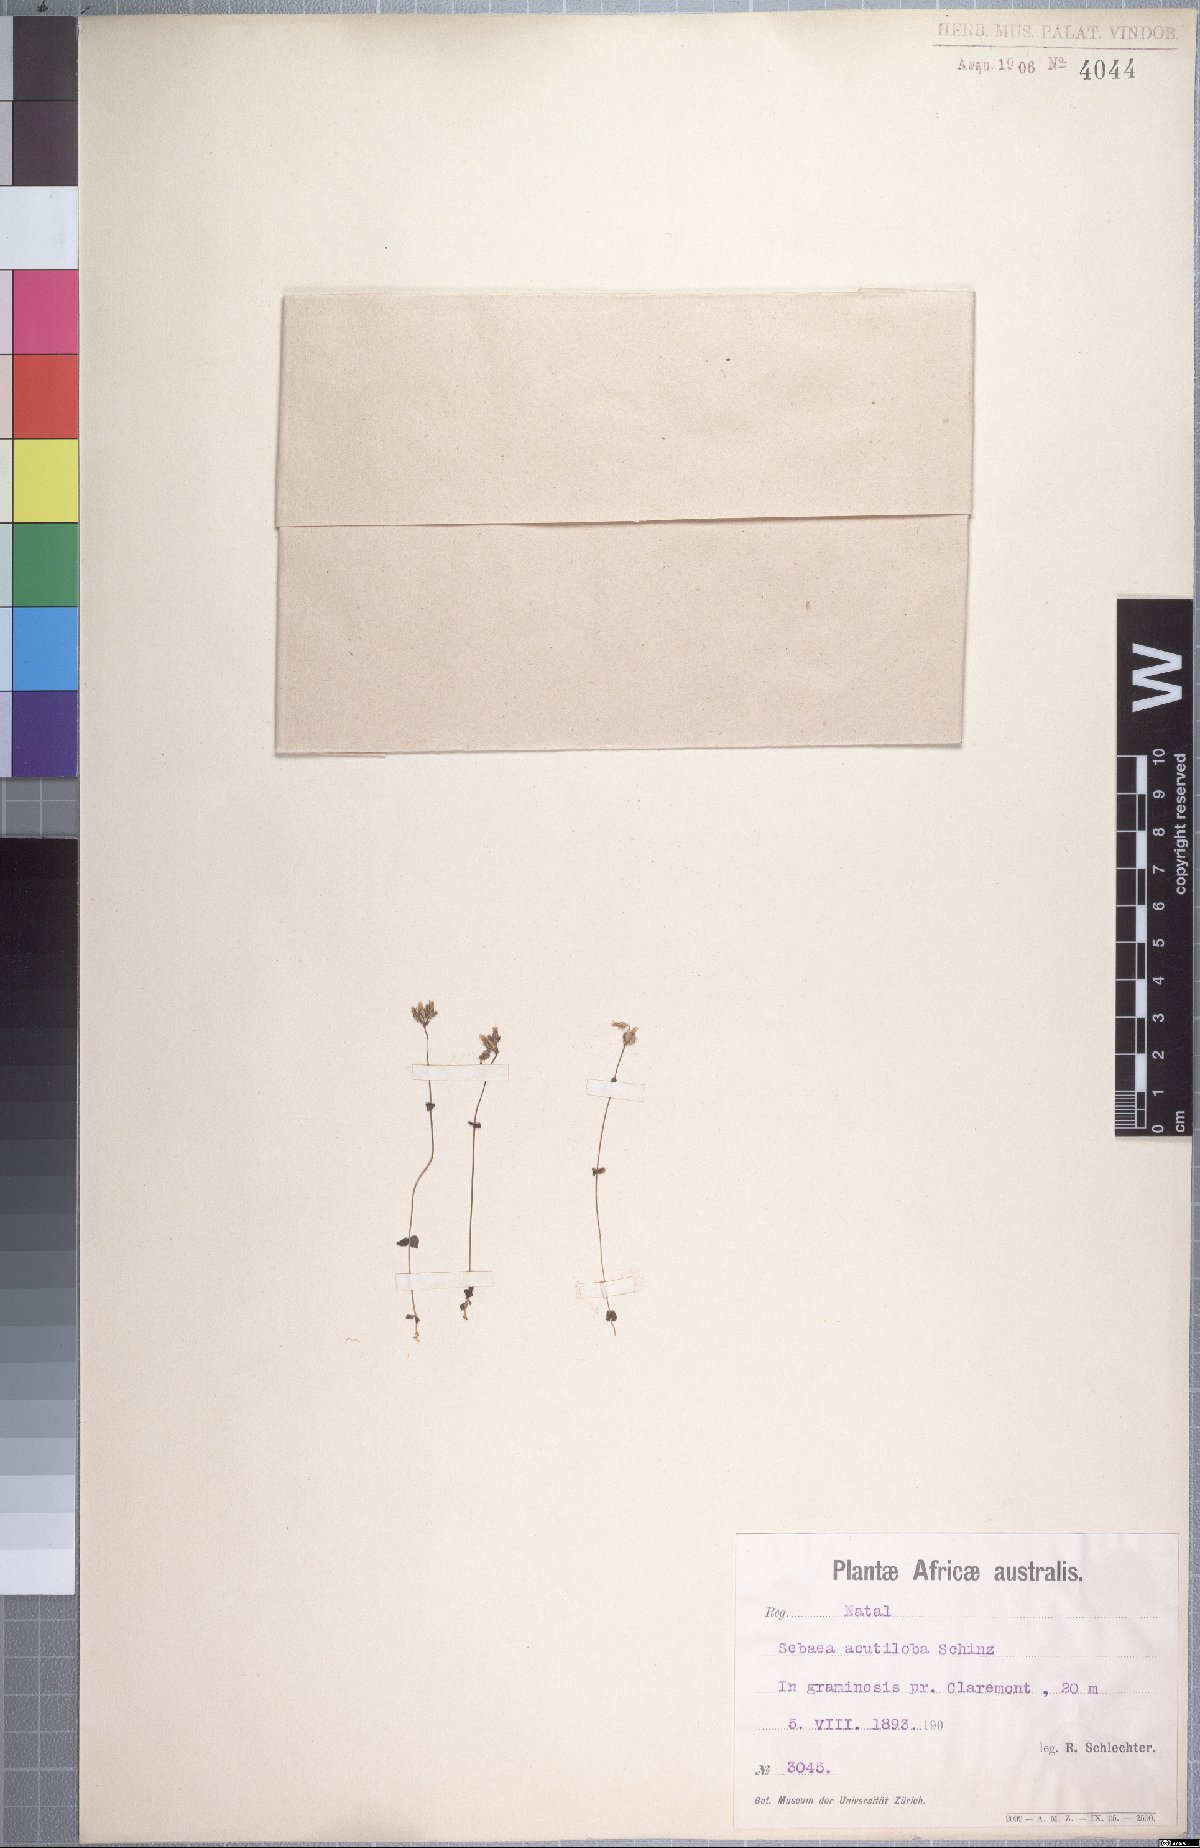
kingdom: Plantae
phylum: Tracheophyta
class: Magnoliopsida
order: Gentianales
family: Gentianaceae
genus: Sebaea
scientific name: Sebaea zeyheri
